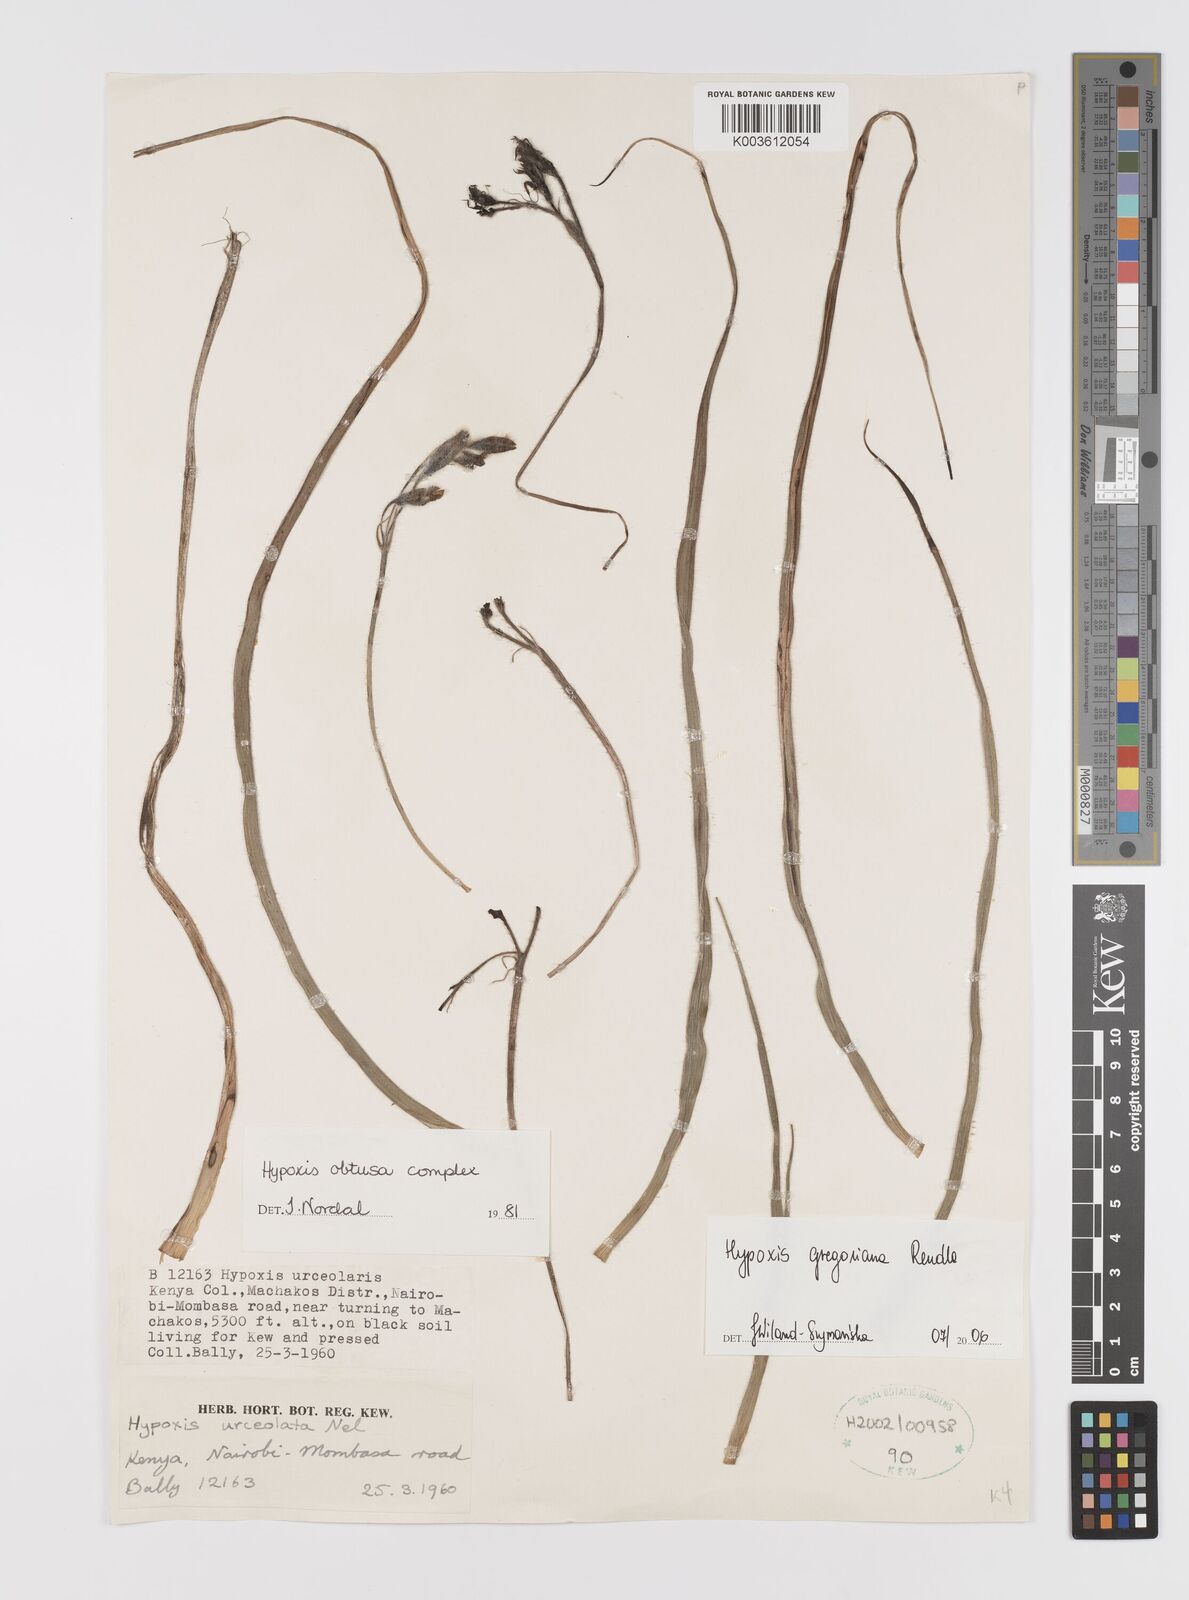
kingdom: Plantae
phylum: Tracheophyta
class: Liliopsida
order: Asparagales
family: Hypoxidaceae
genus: Hypoxis
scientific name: Hypoxis gregoriana
